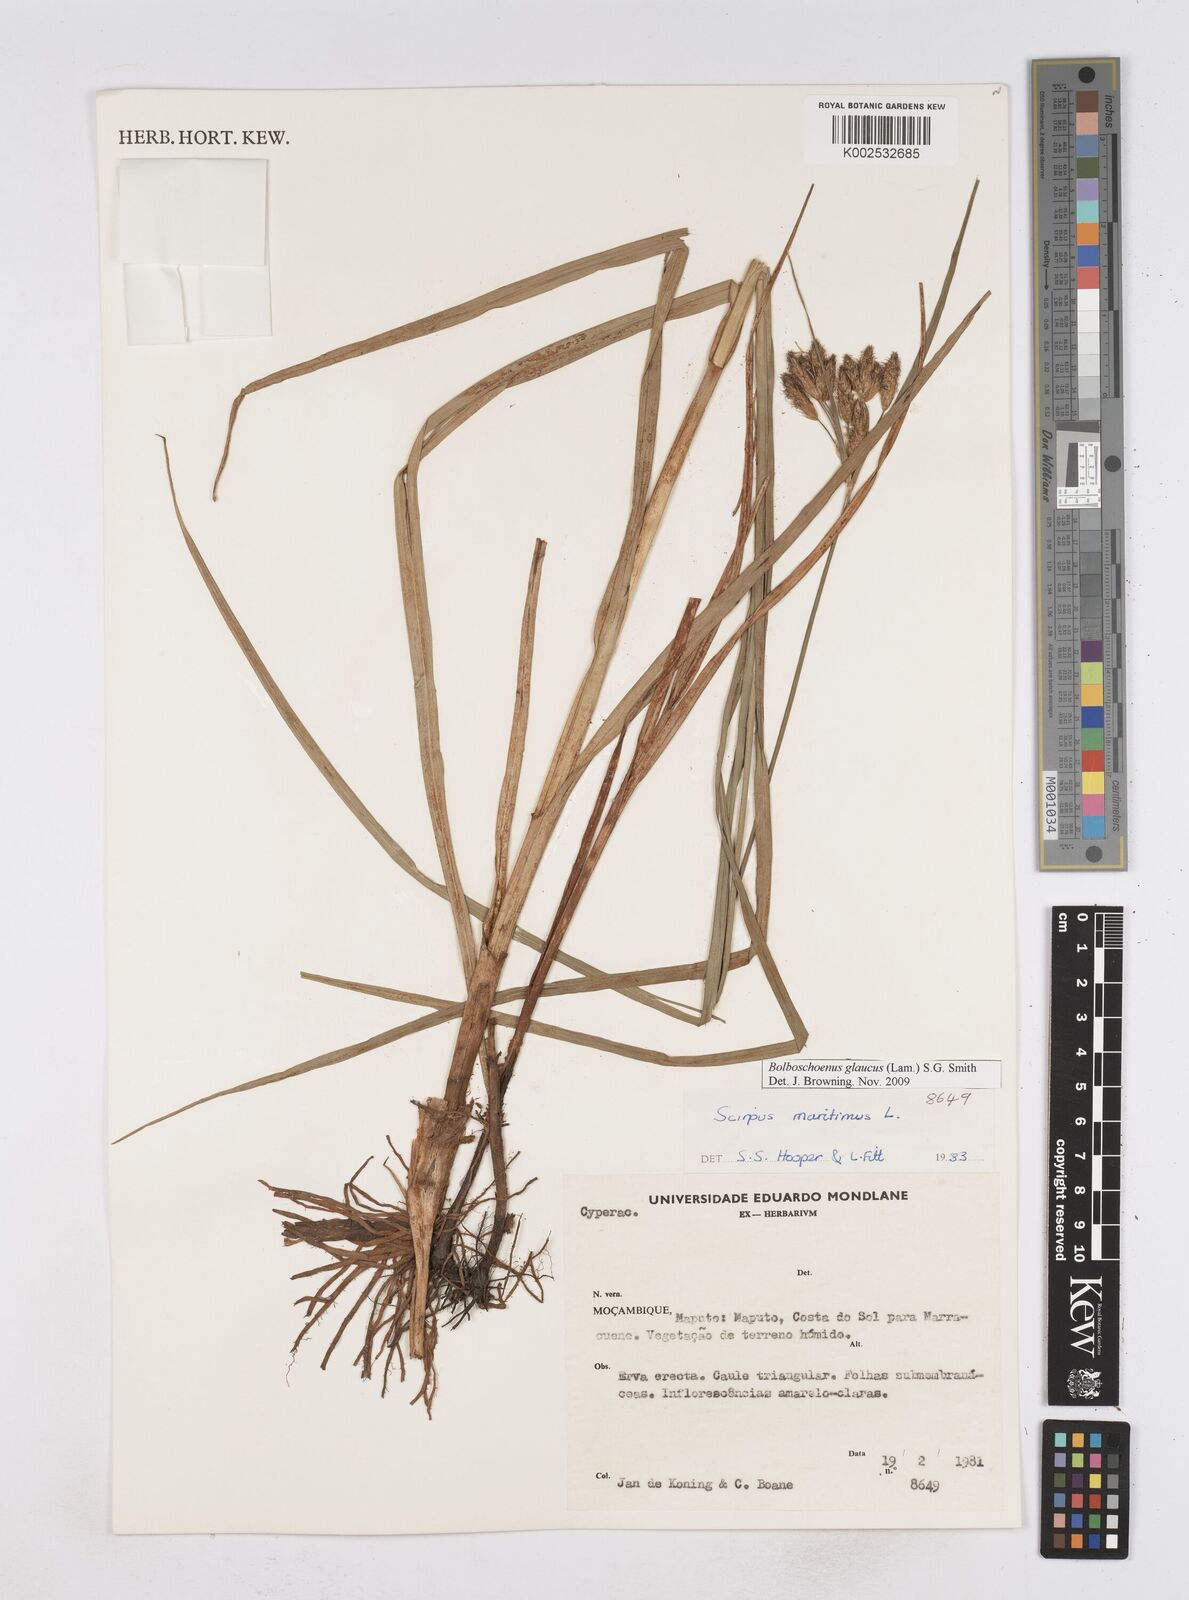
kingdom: Plantae
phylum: Tracheophyta
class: Liliopsida
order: Poales
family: Cyperaceae
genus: Bolboschoenus
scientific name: Bolboschoenus glaucus
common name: Tuberous bulrush
